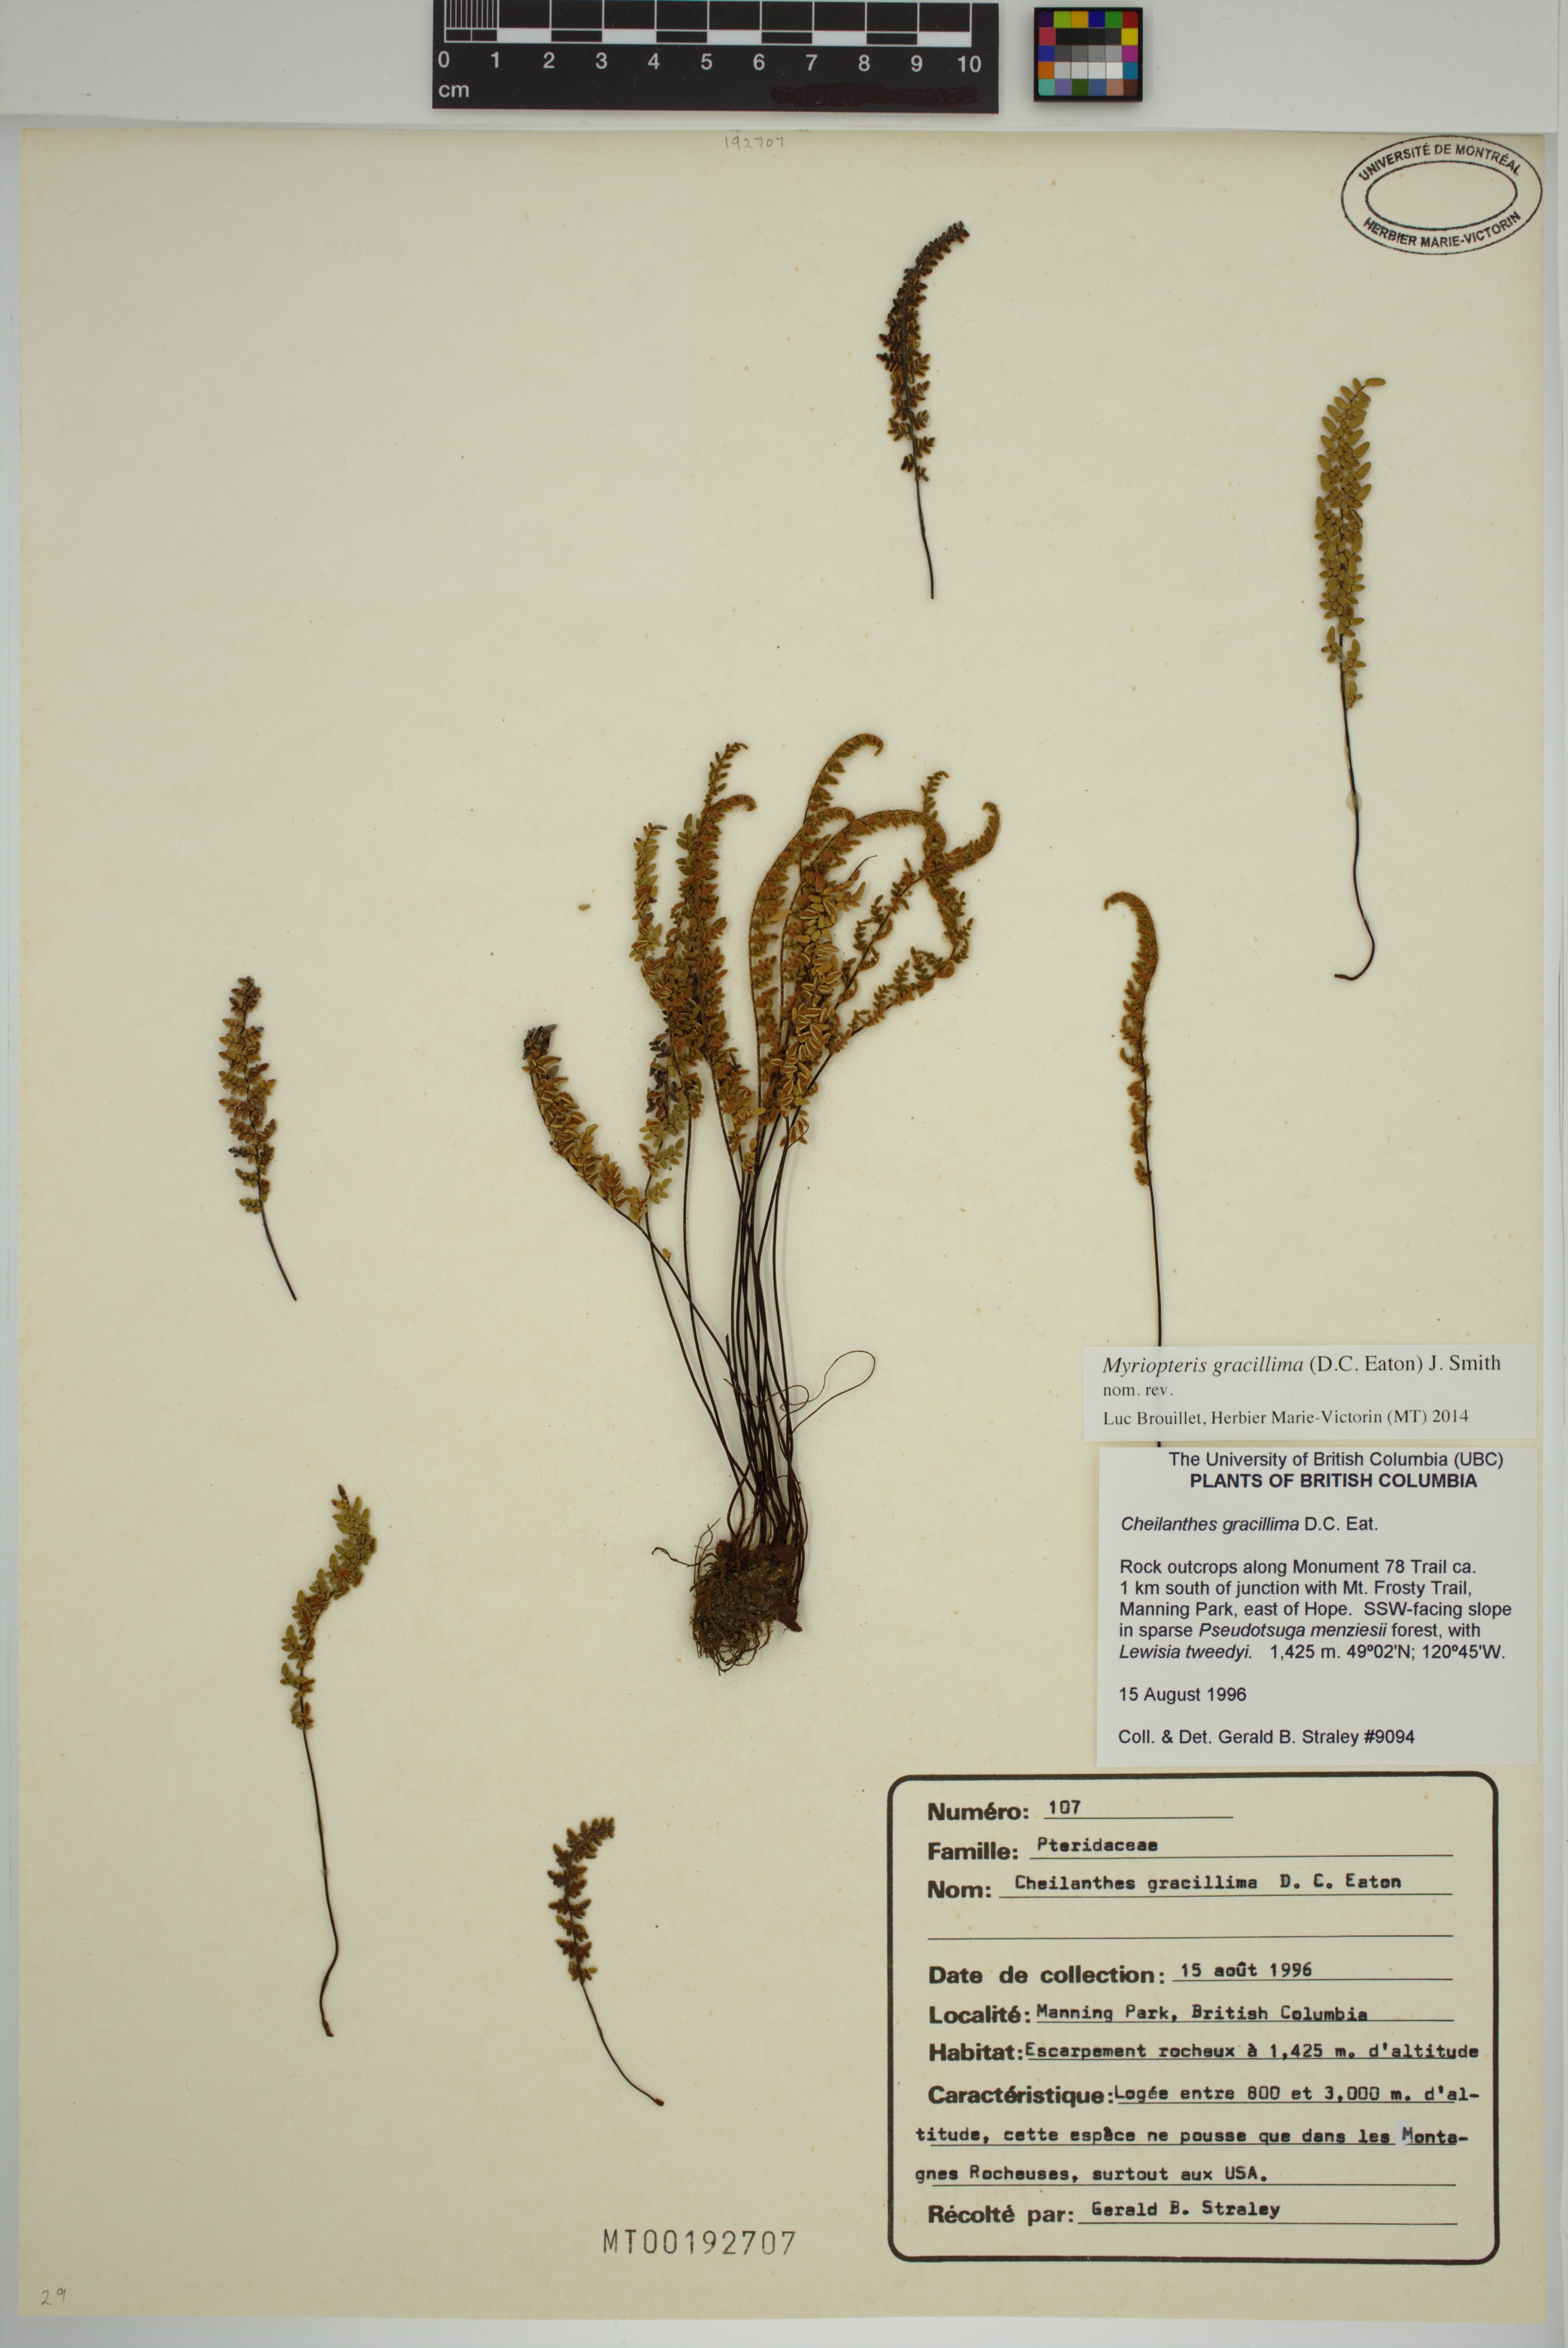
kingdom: Plantae
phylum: Tracheophyta
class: Polypodiopsida
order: Polypodiales
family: Pteridaceae
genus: Myriopteris
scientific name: Myriopteris gracillima
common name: Lace fern
